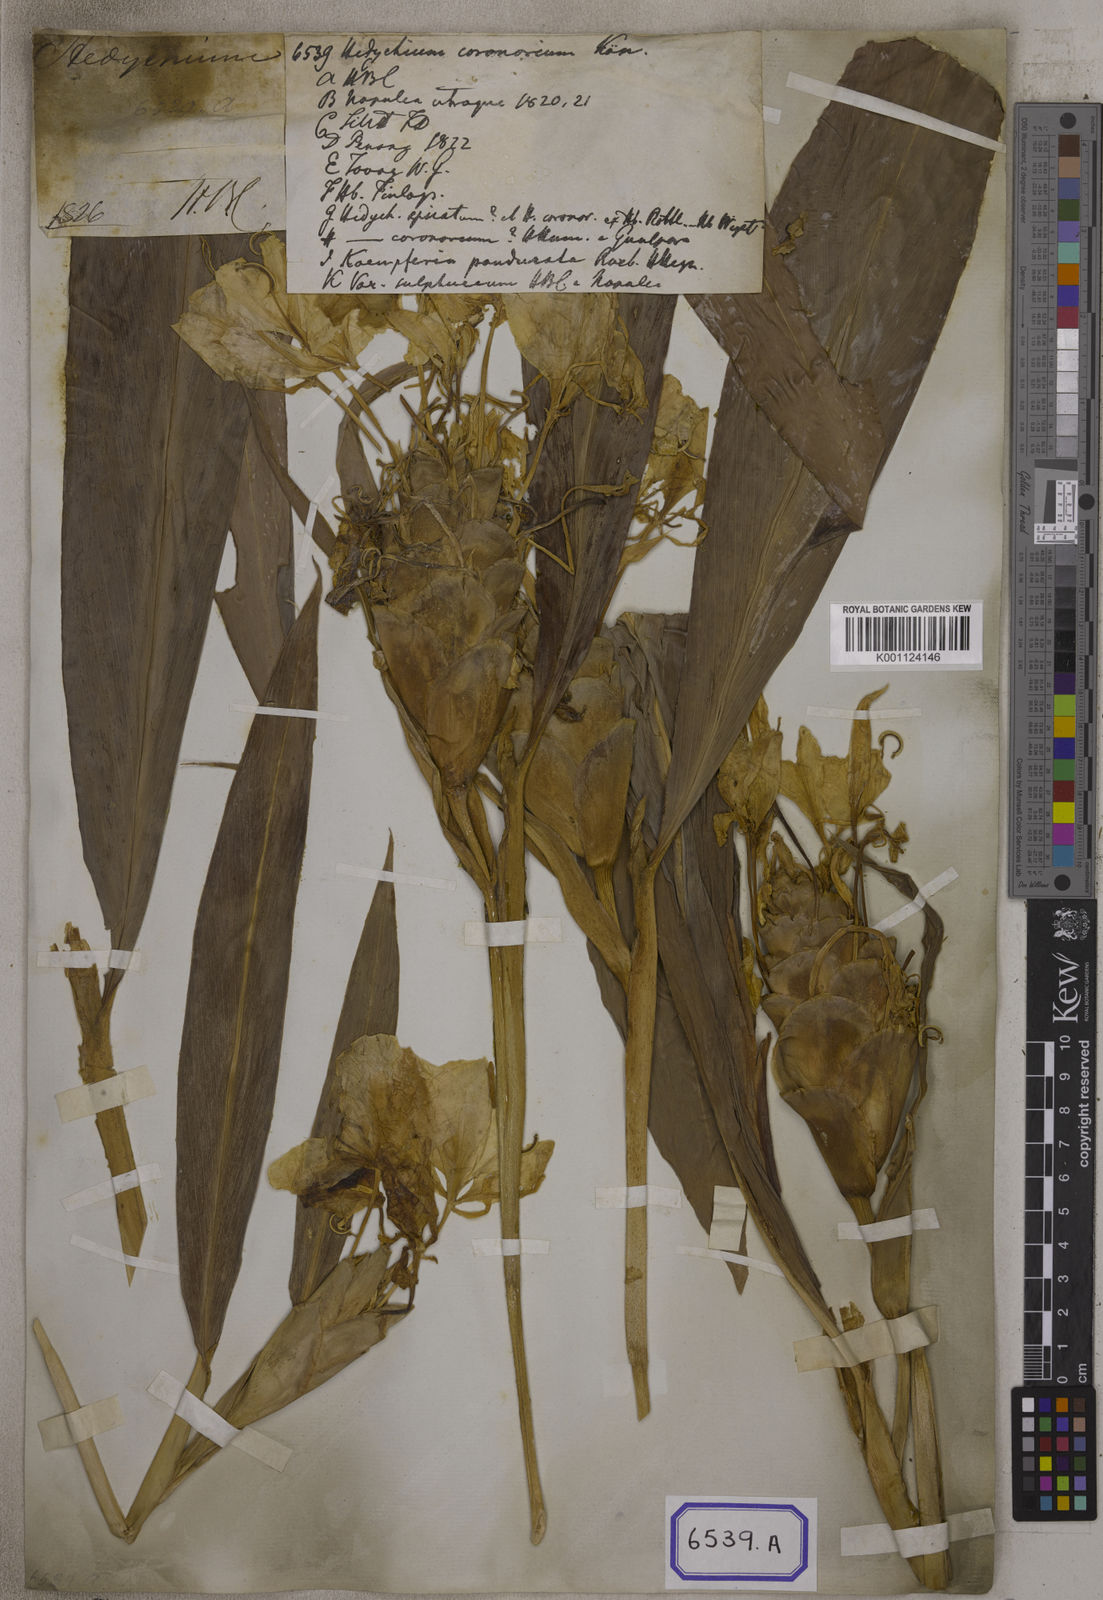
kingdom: Plantae
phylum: Tracheophyta
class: Liliopsida
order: Zingiberales
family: Zingiberaceae
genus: Hedychium
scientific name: Hedychium coronarium
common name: White garland-lily
